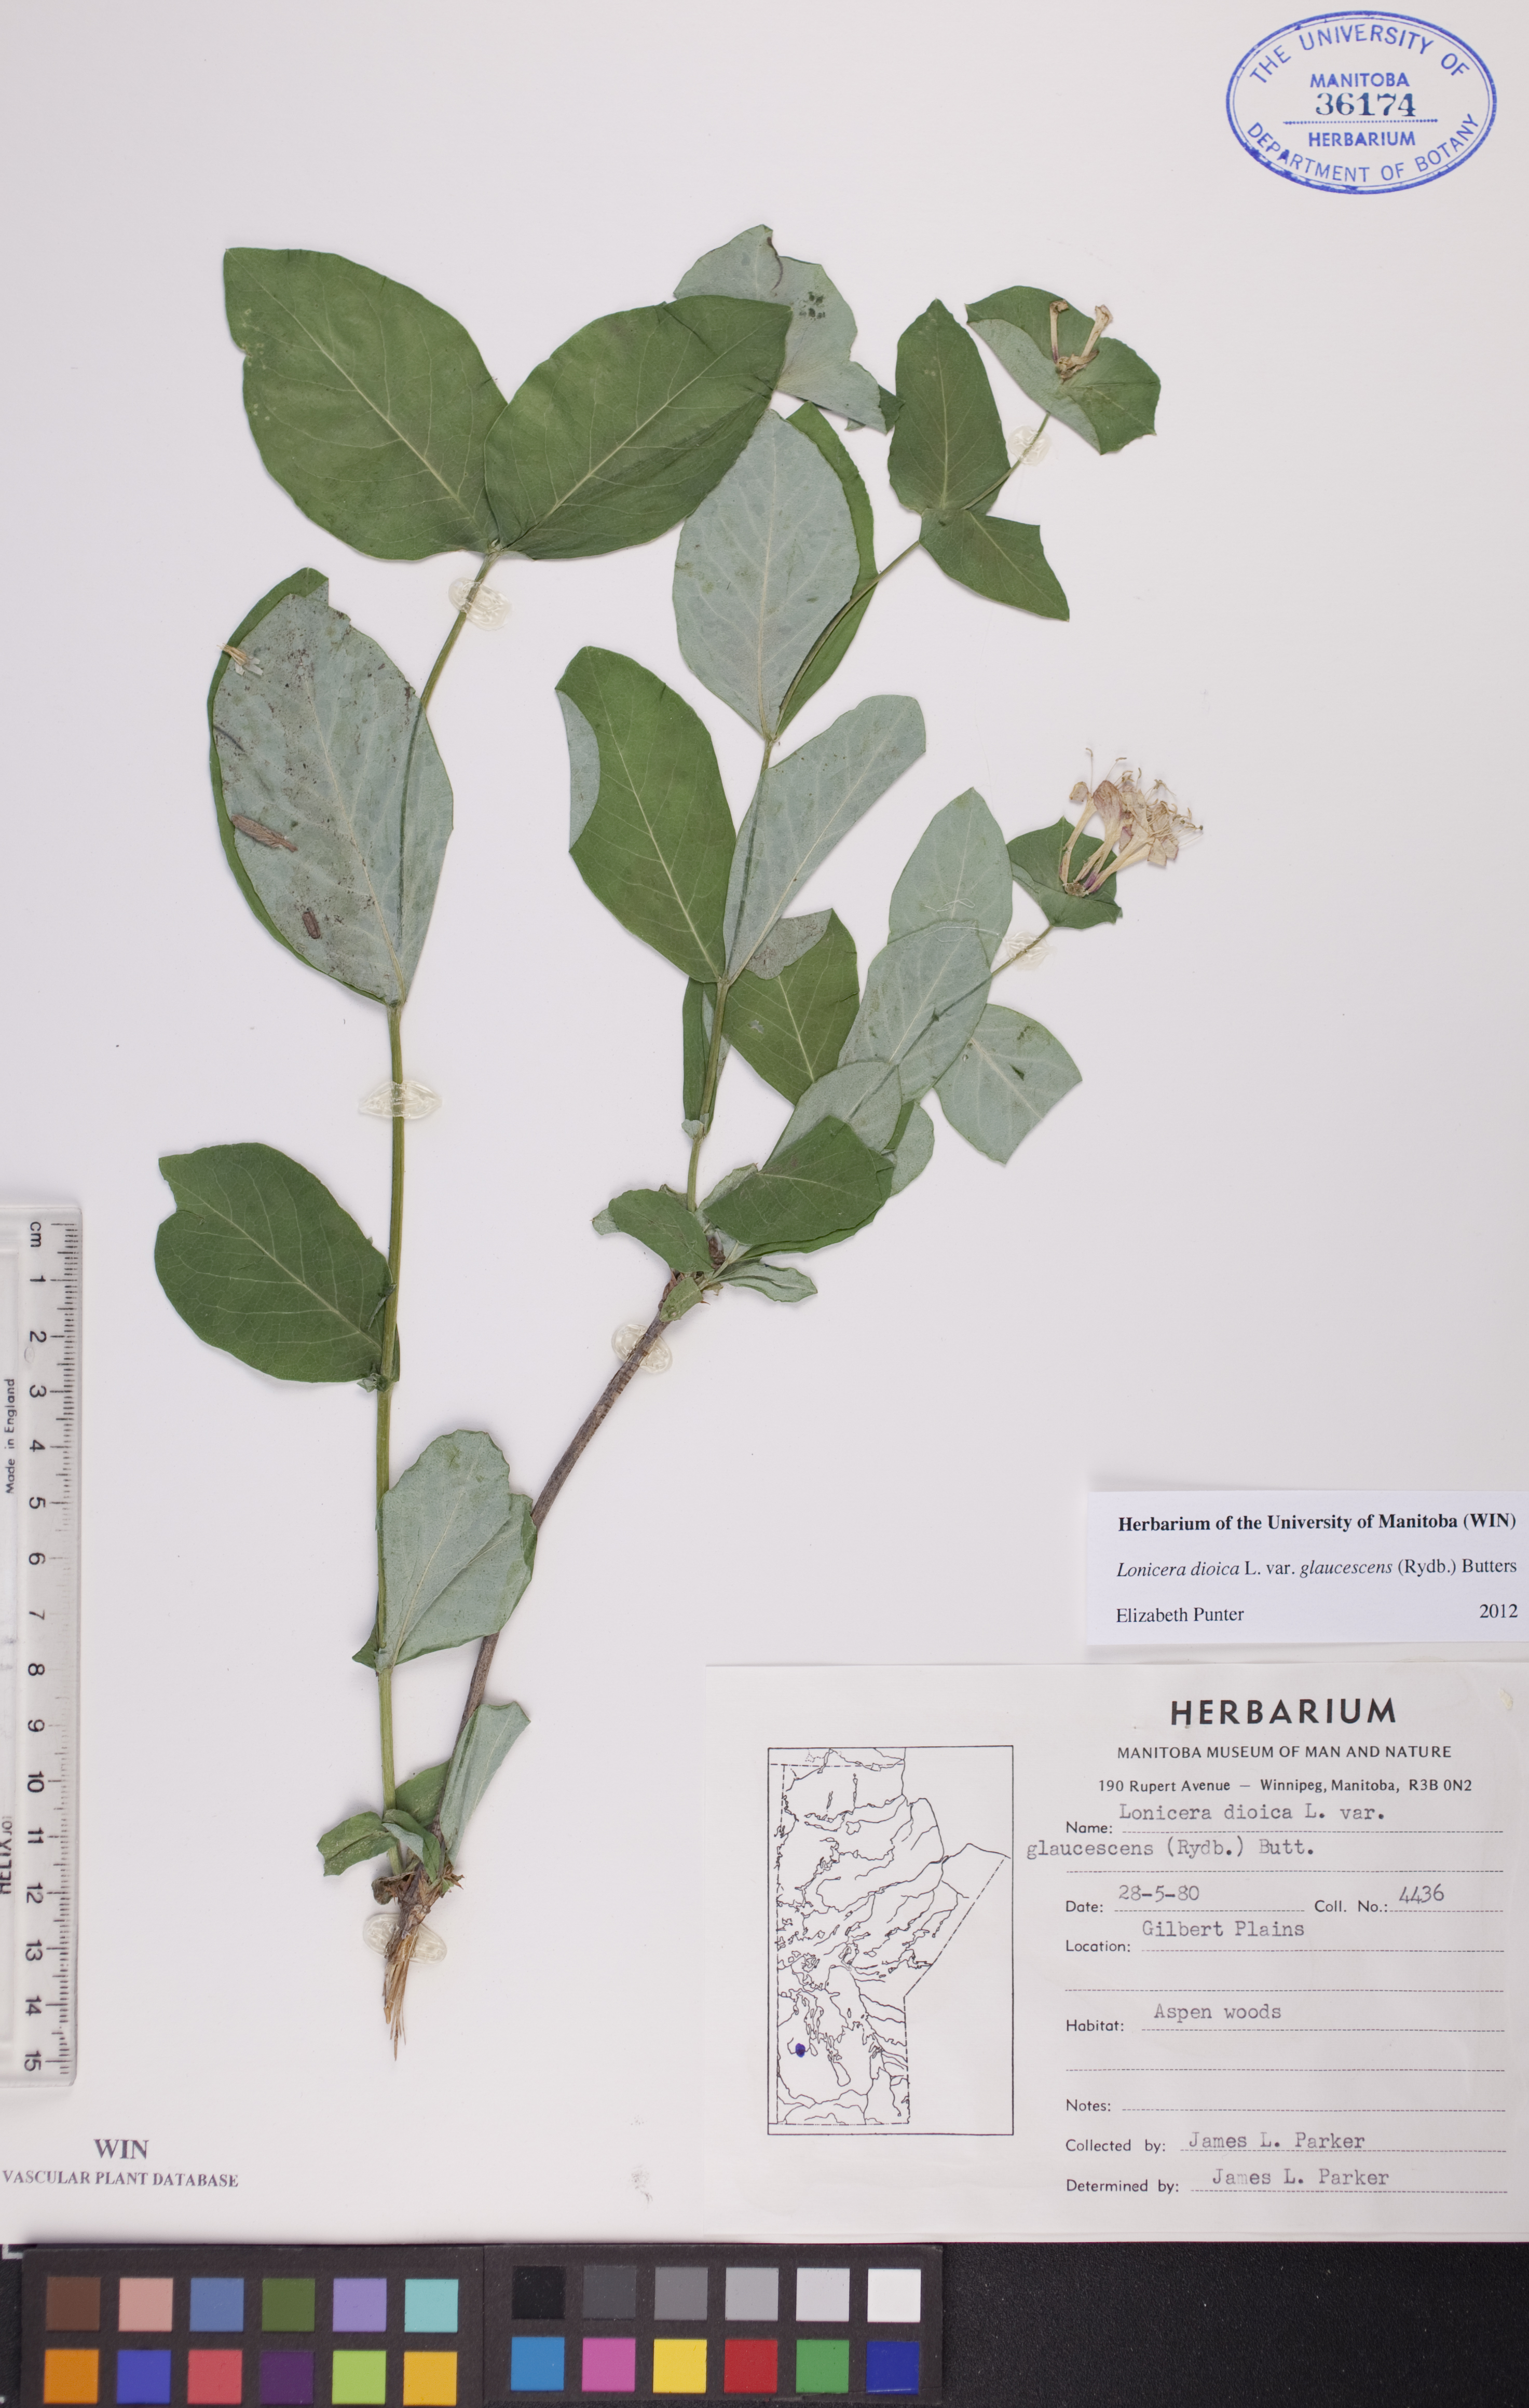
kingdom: Plantae
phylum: Tracheophyta
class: Magnoliopsida
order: Dipsacales
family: Caprifoliaceae
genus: Lonicera
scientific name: Lonicera dioica
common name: Limber honeysuckle
